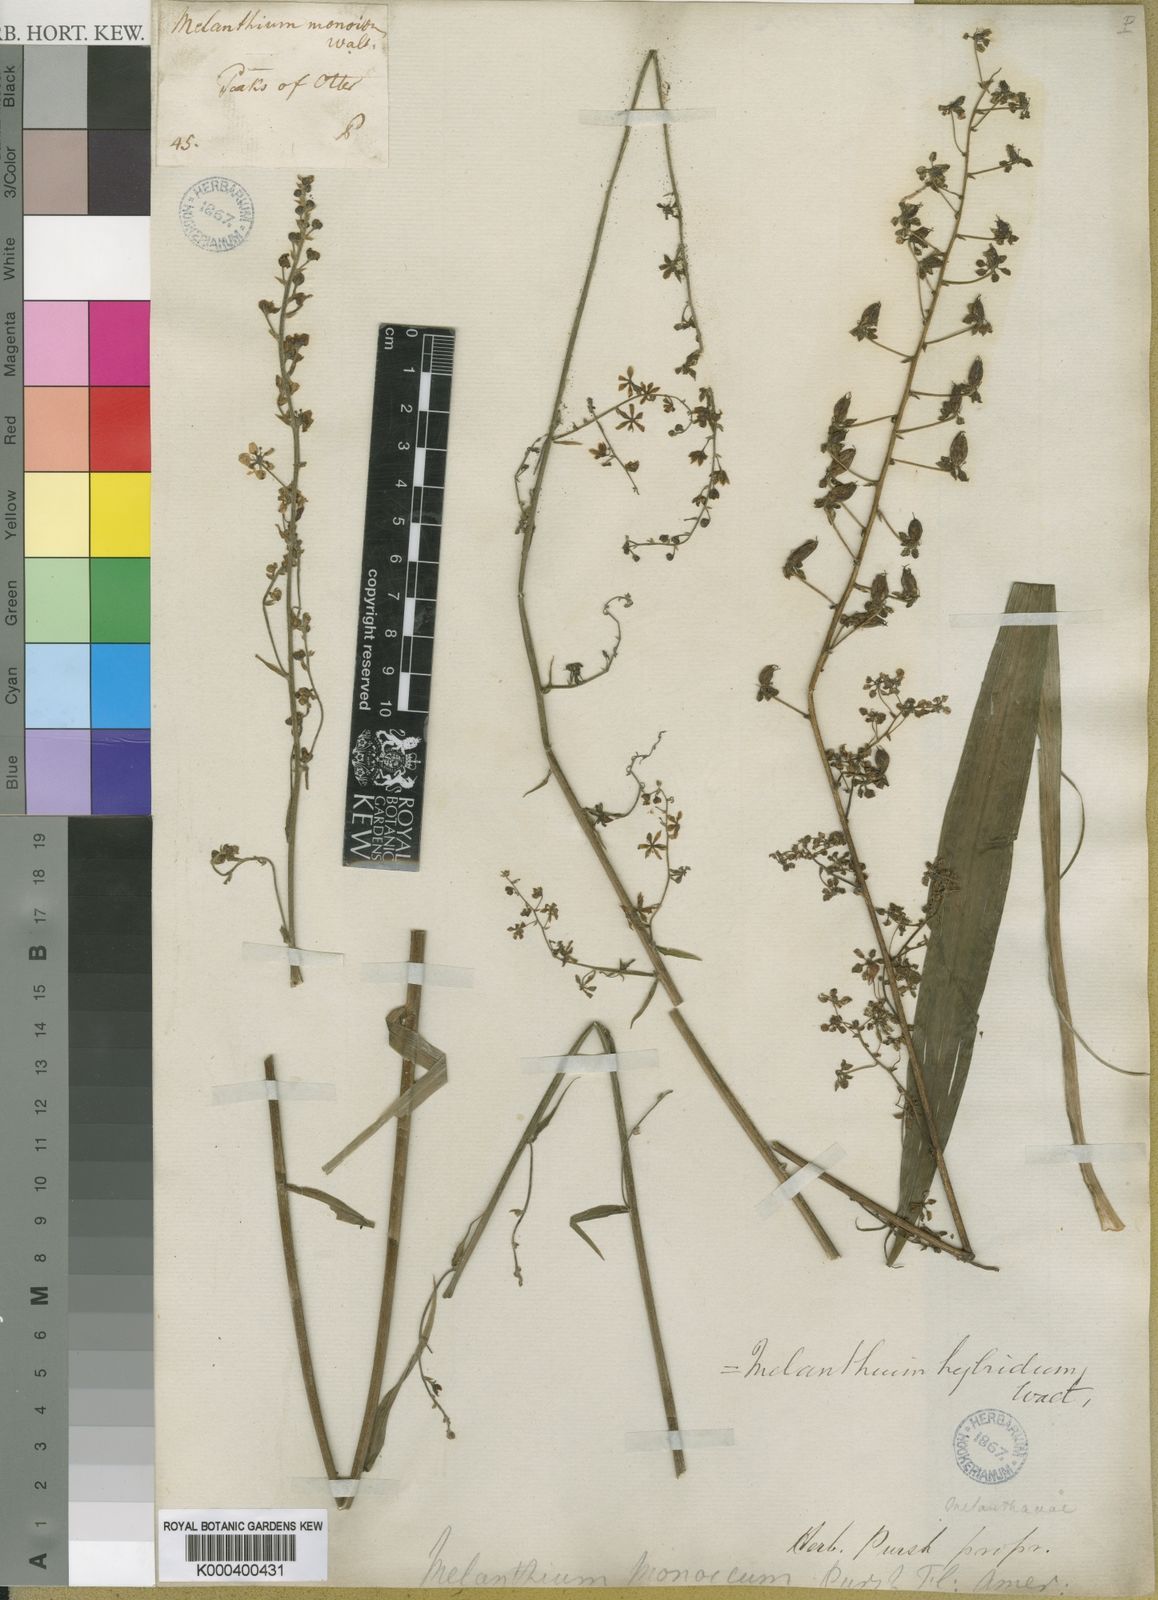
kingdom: Plantae
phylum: Tracheophyta
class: Liliopsida
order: Liliales
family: Melanthiaceae
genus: Melanthium
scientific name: Melanthium hybridum
